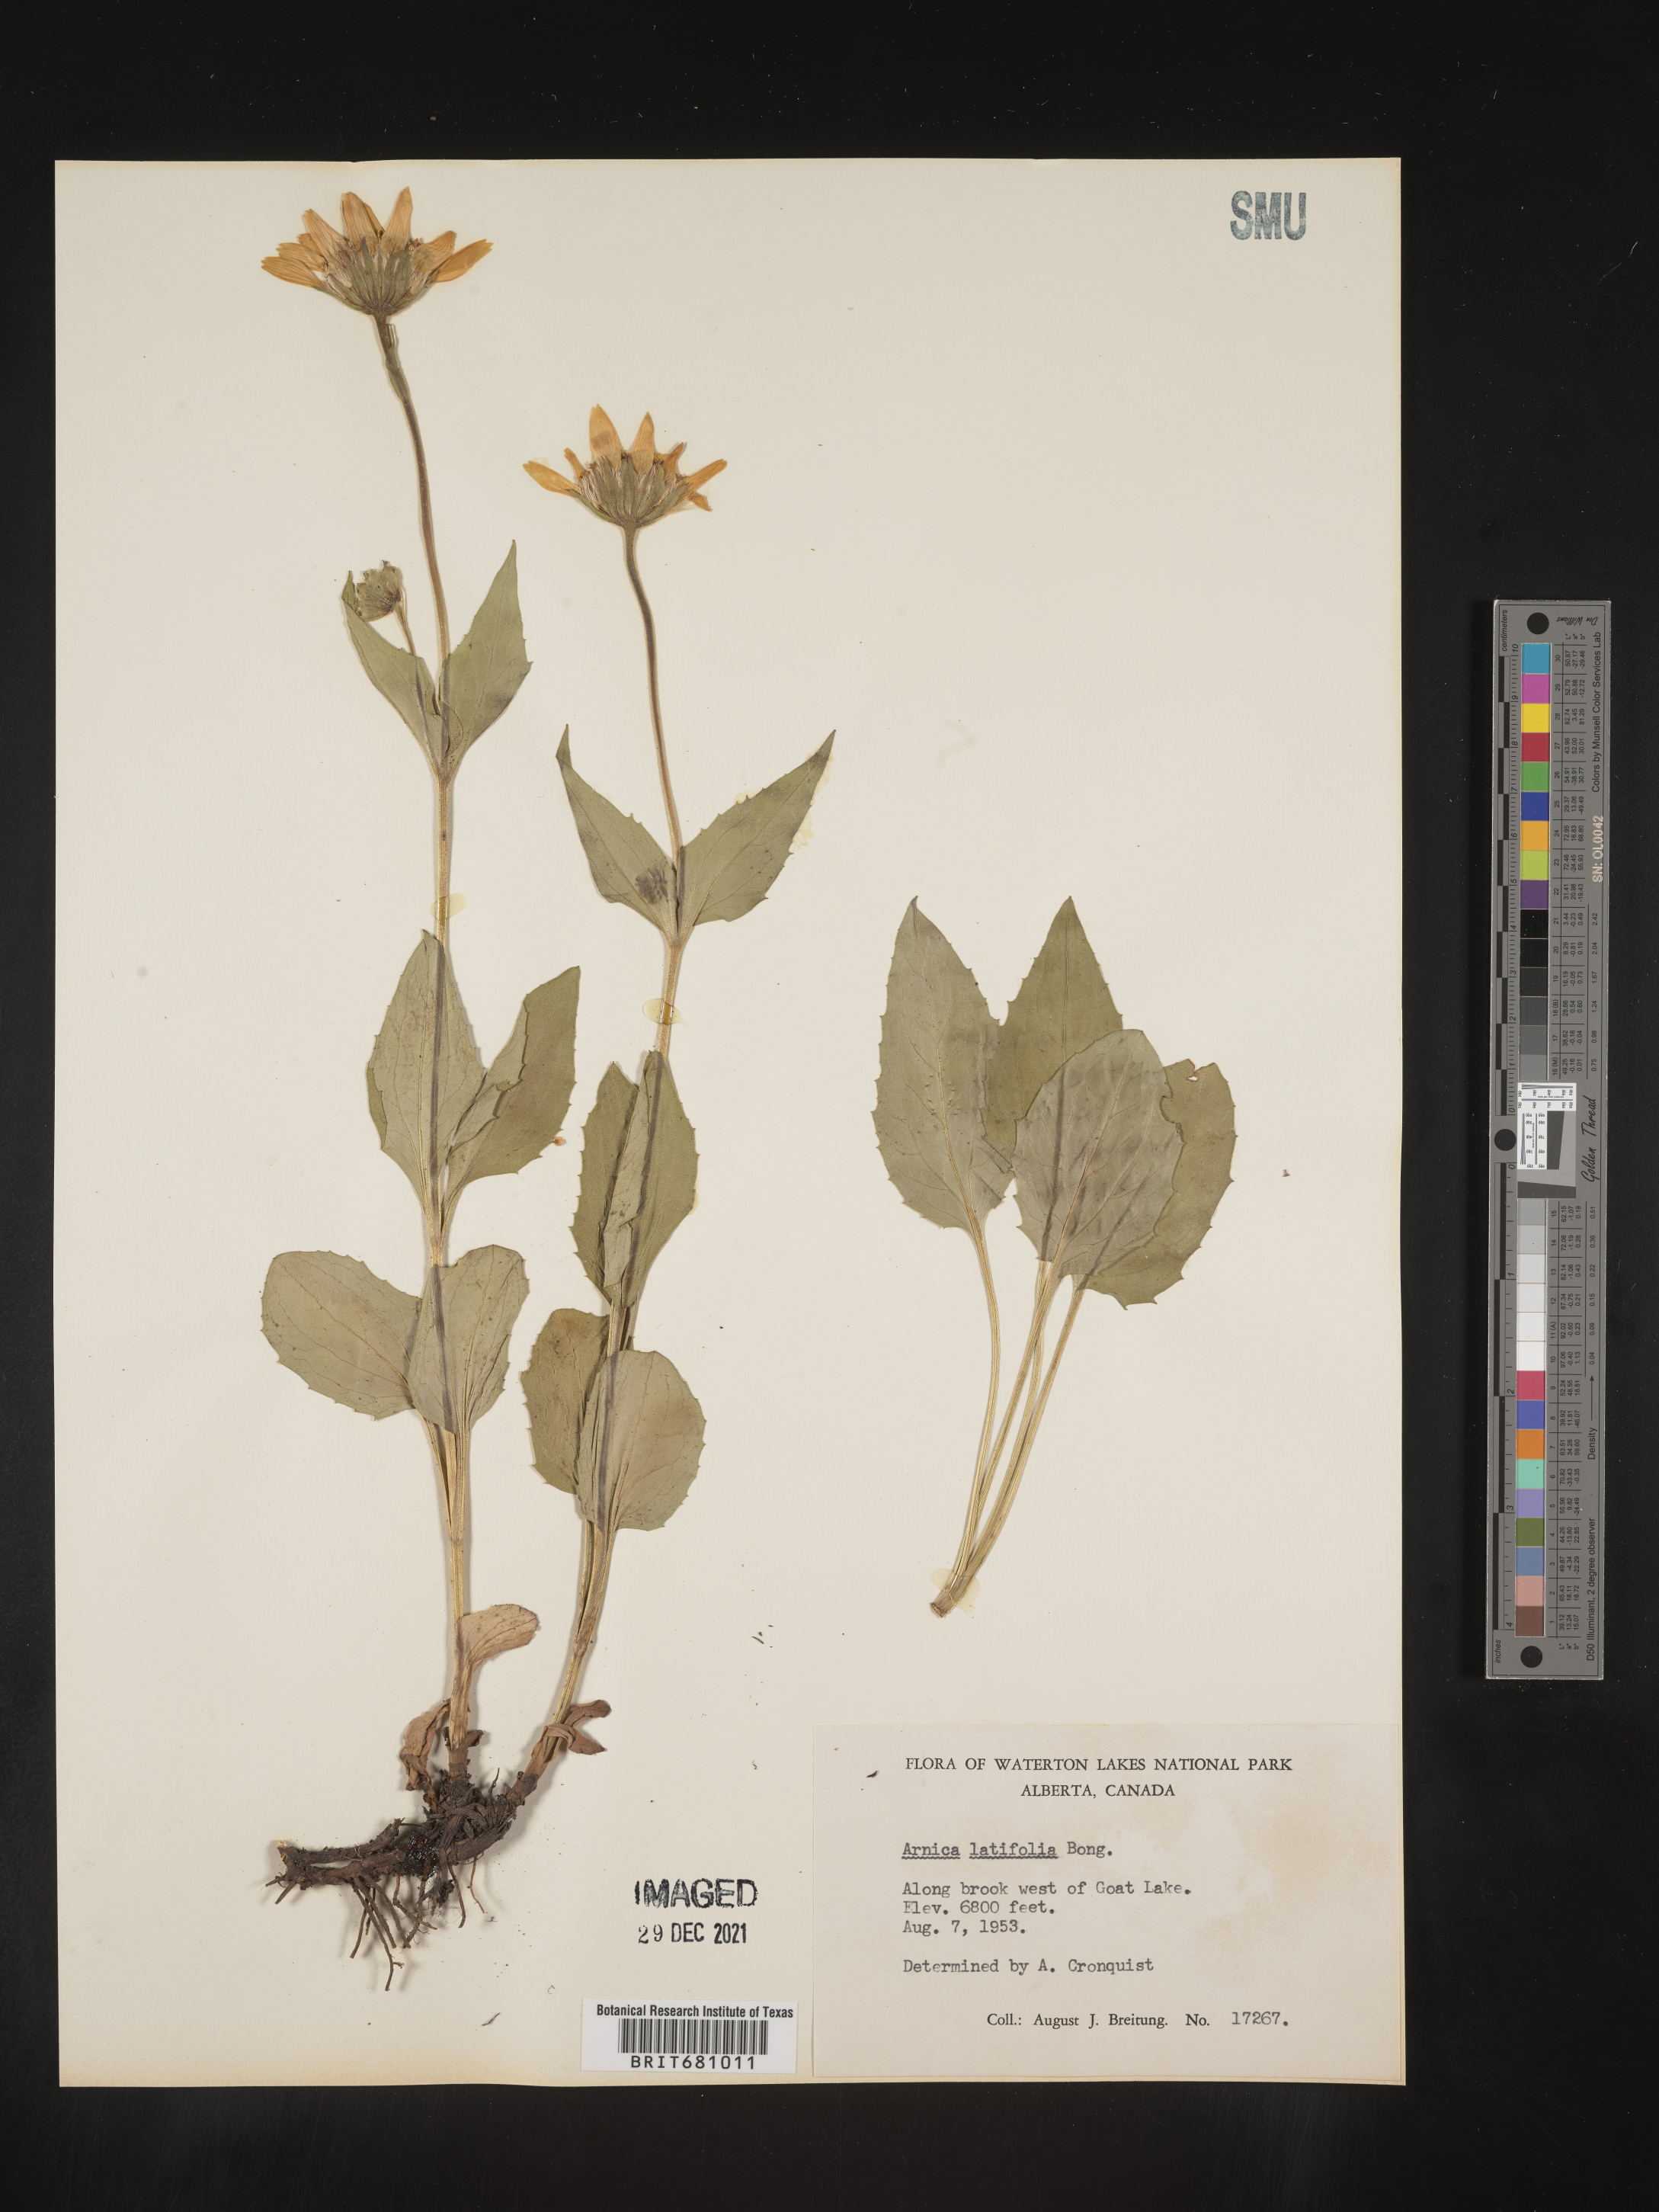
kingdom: Plantae
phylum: Tracheophyta
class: Magnoliopsida
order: Asterales
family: Asteraceae
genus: Arnica
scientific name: Arnica latifolia
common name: Arnica
